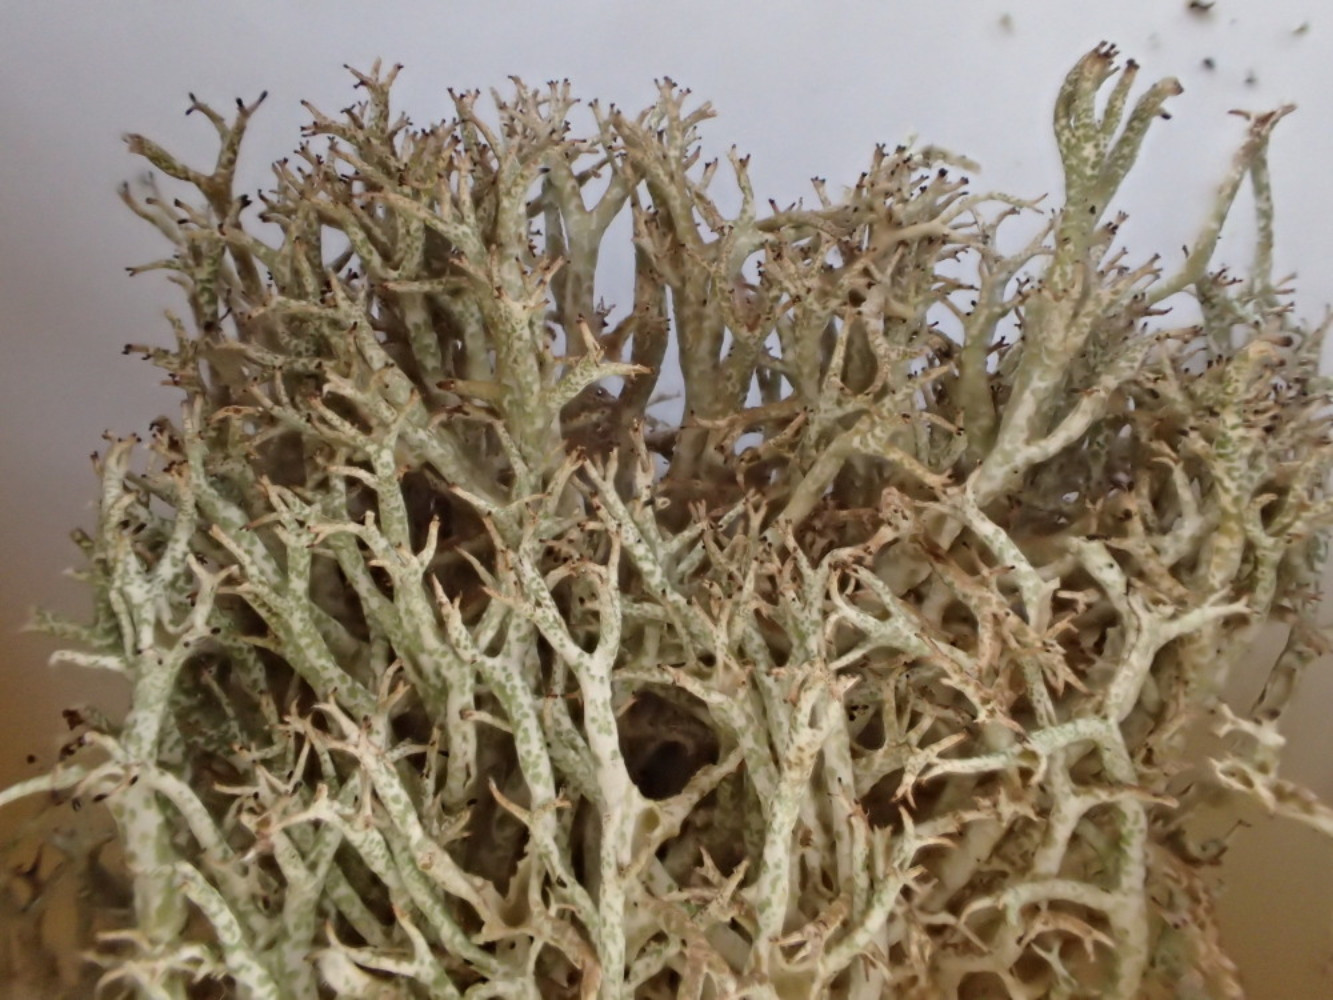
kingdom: Fungi
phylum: Ascomycota
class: Lecanoromycetes
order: Lecanorales
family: Cladoniaceae
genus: Cladonia
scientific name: Cladonia rangiformis
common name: spættet bægerlav
